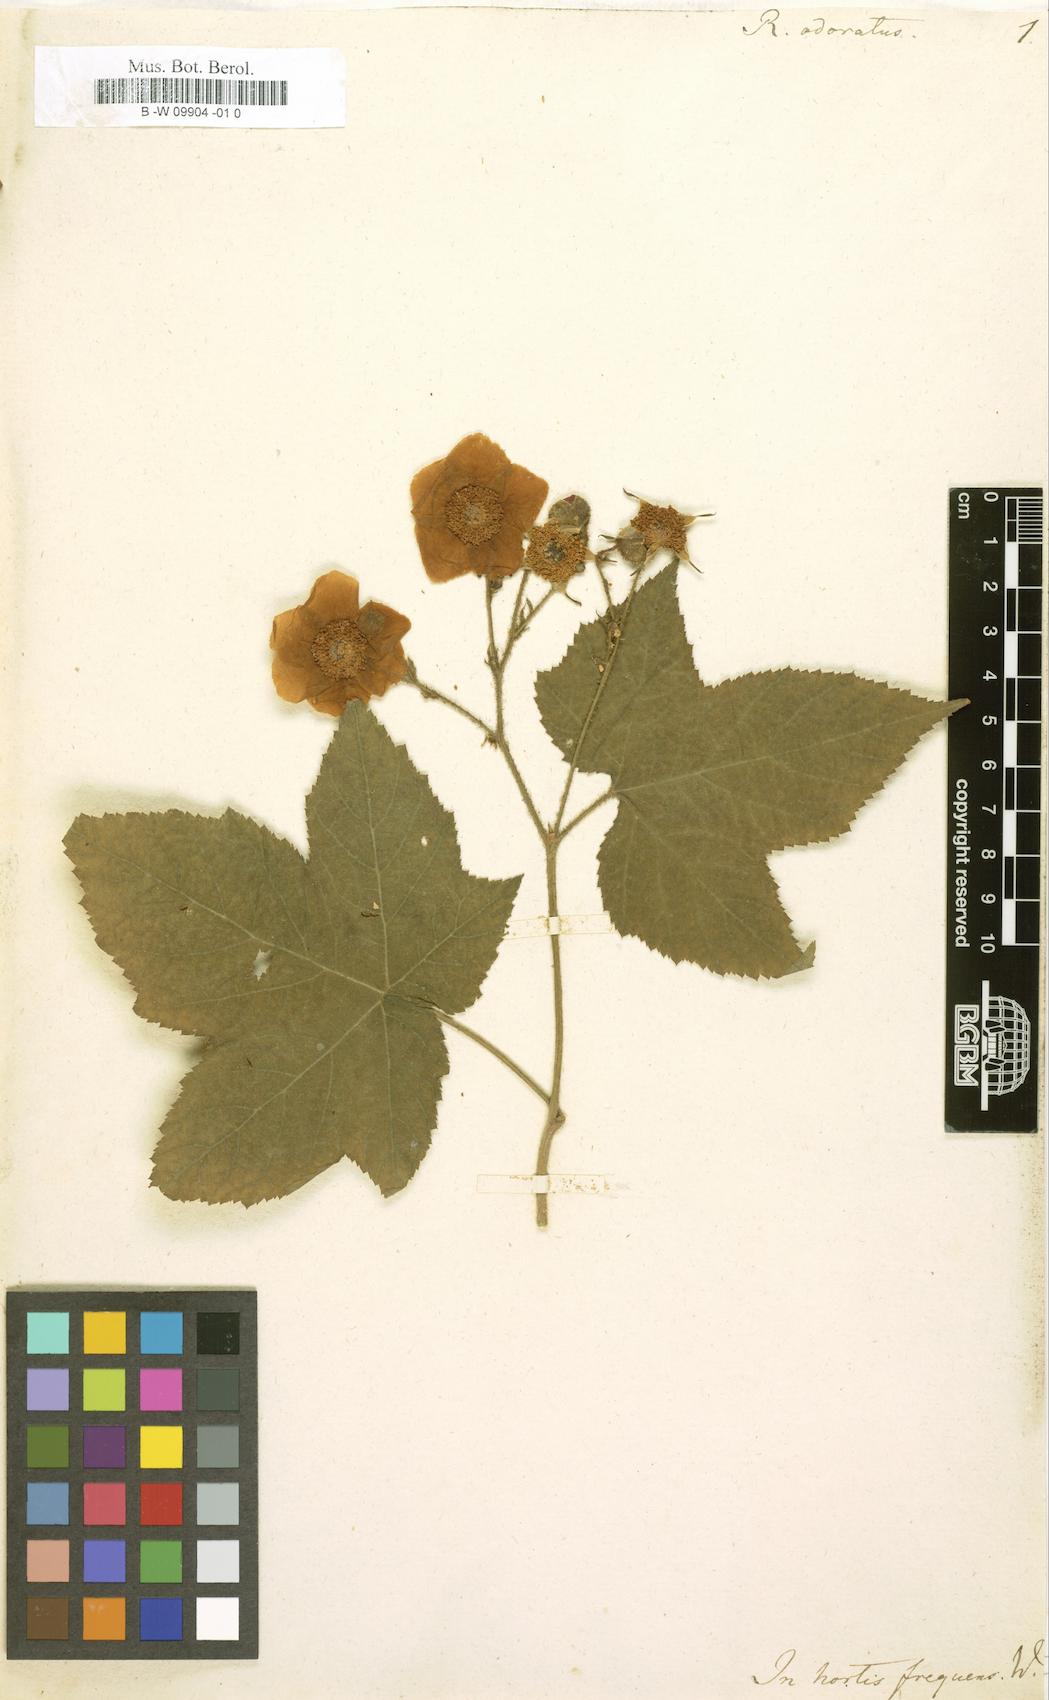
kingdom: Plantae
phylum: Tracheophyta
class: Magnoliopsida
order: Rosales
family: Rosaceae
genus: Rubus
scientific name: Rubus odoratus
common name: Purple-flowered raspberry
